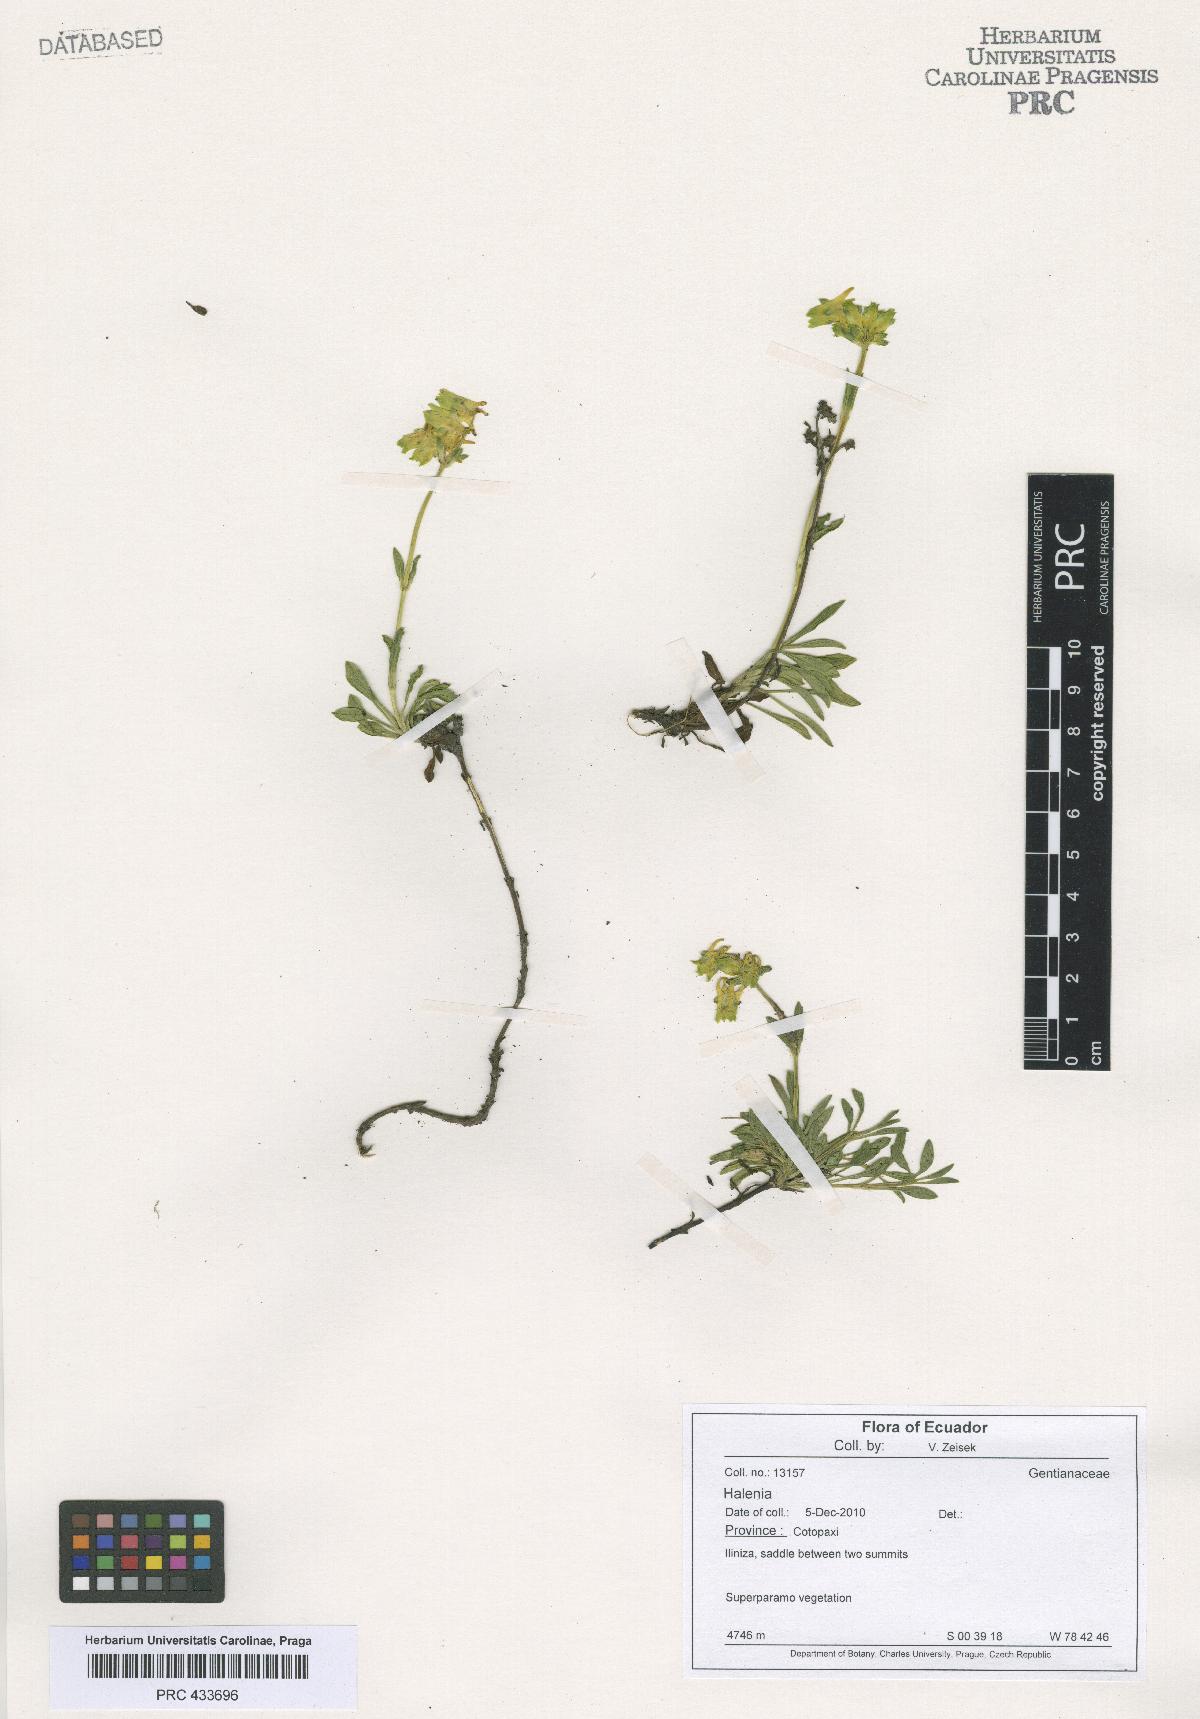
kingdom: Plantae
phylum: Tracheophyta
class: Magnoliopsida
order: Gentianales
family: Gentianaceae
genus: Halenia
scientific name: Halenia
